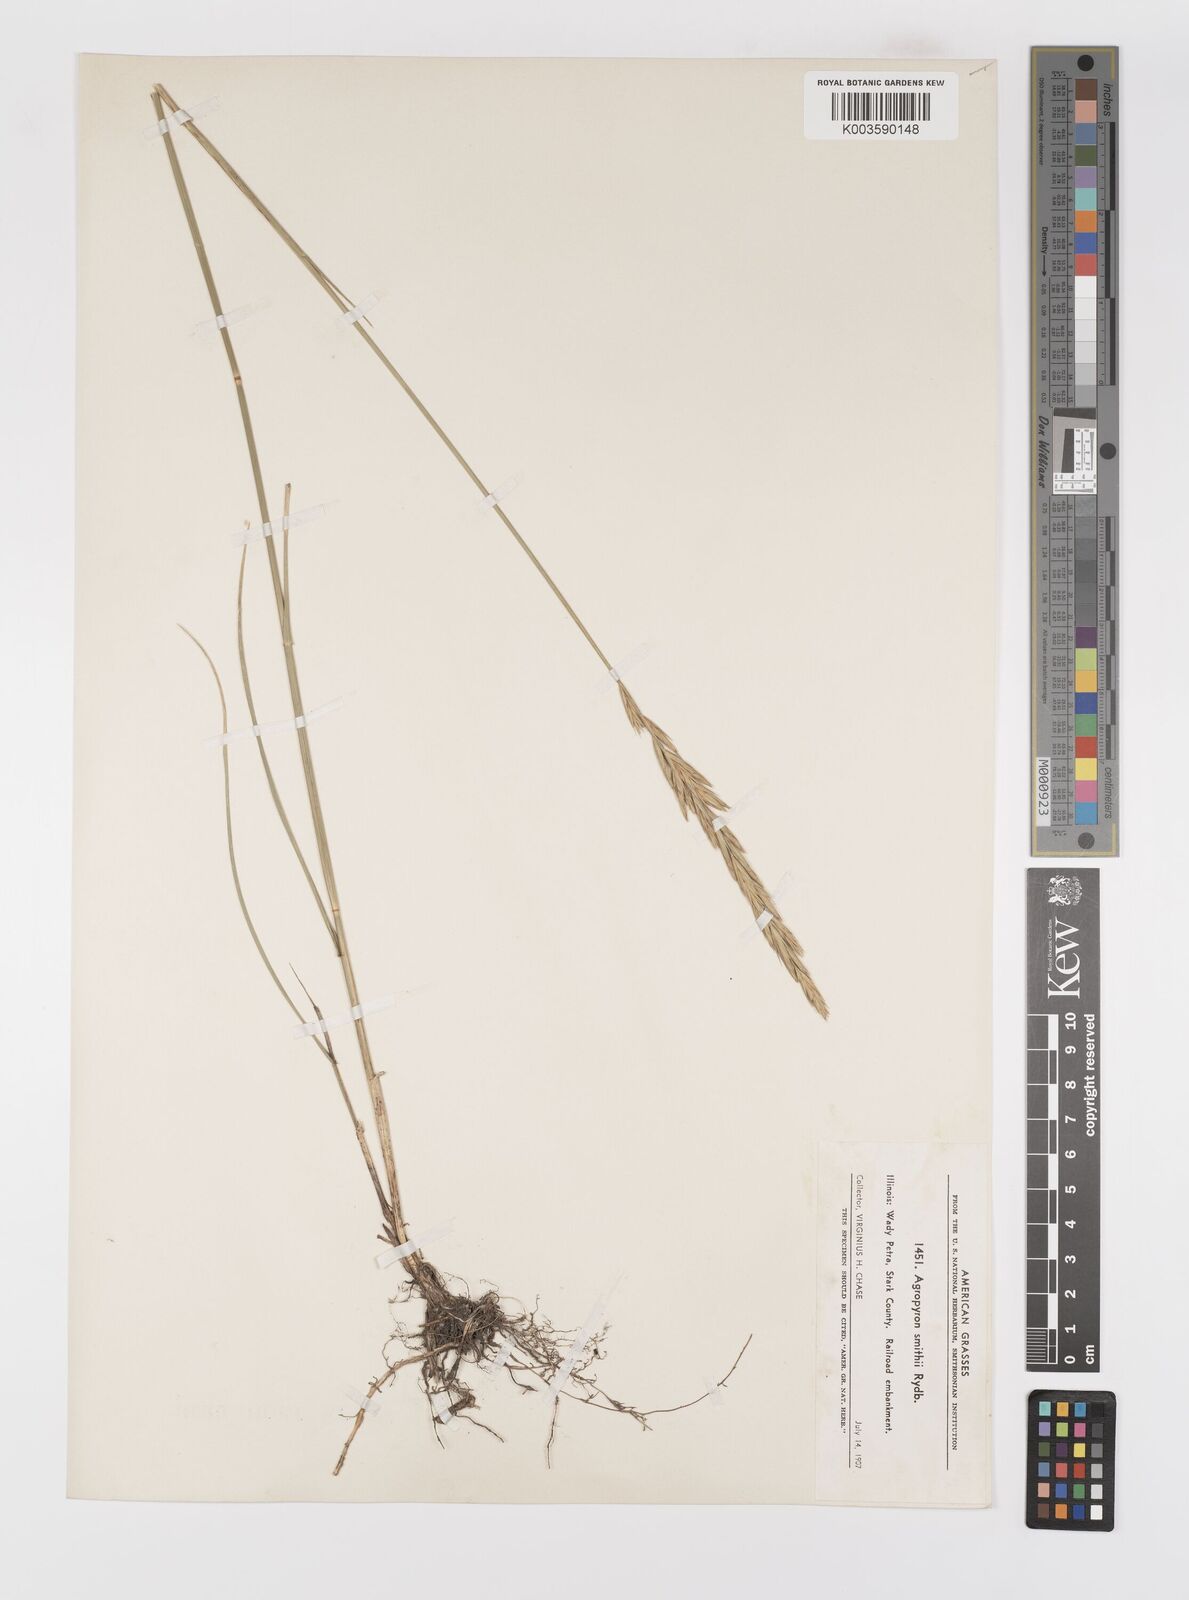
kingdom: Plantae
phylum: Tracheophyta
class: Liliopsida
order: Poales
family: Poaceae
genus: Elymus
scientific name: Elymus smithii
